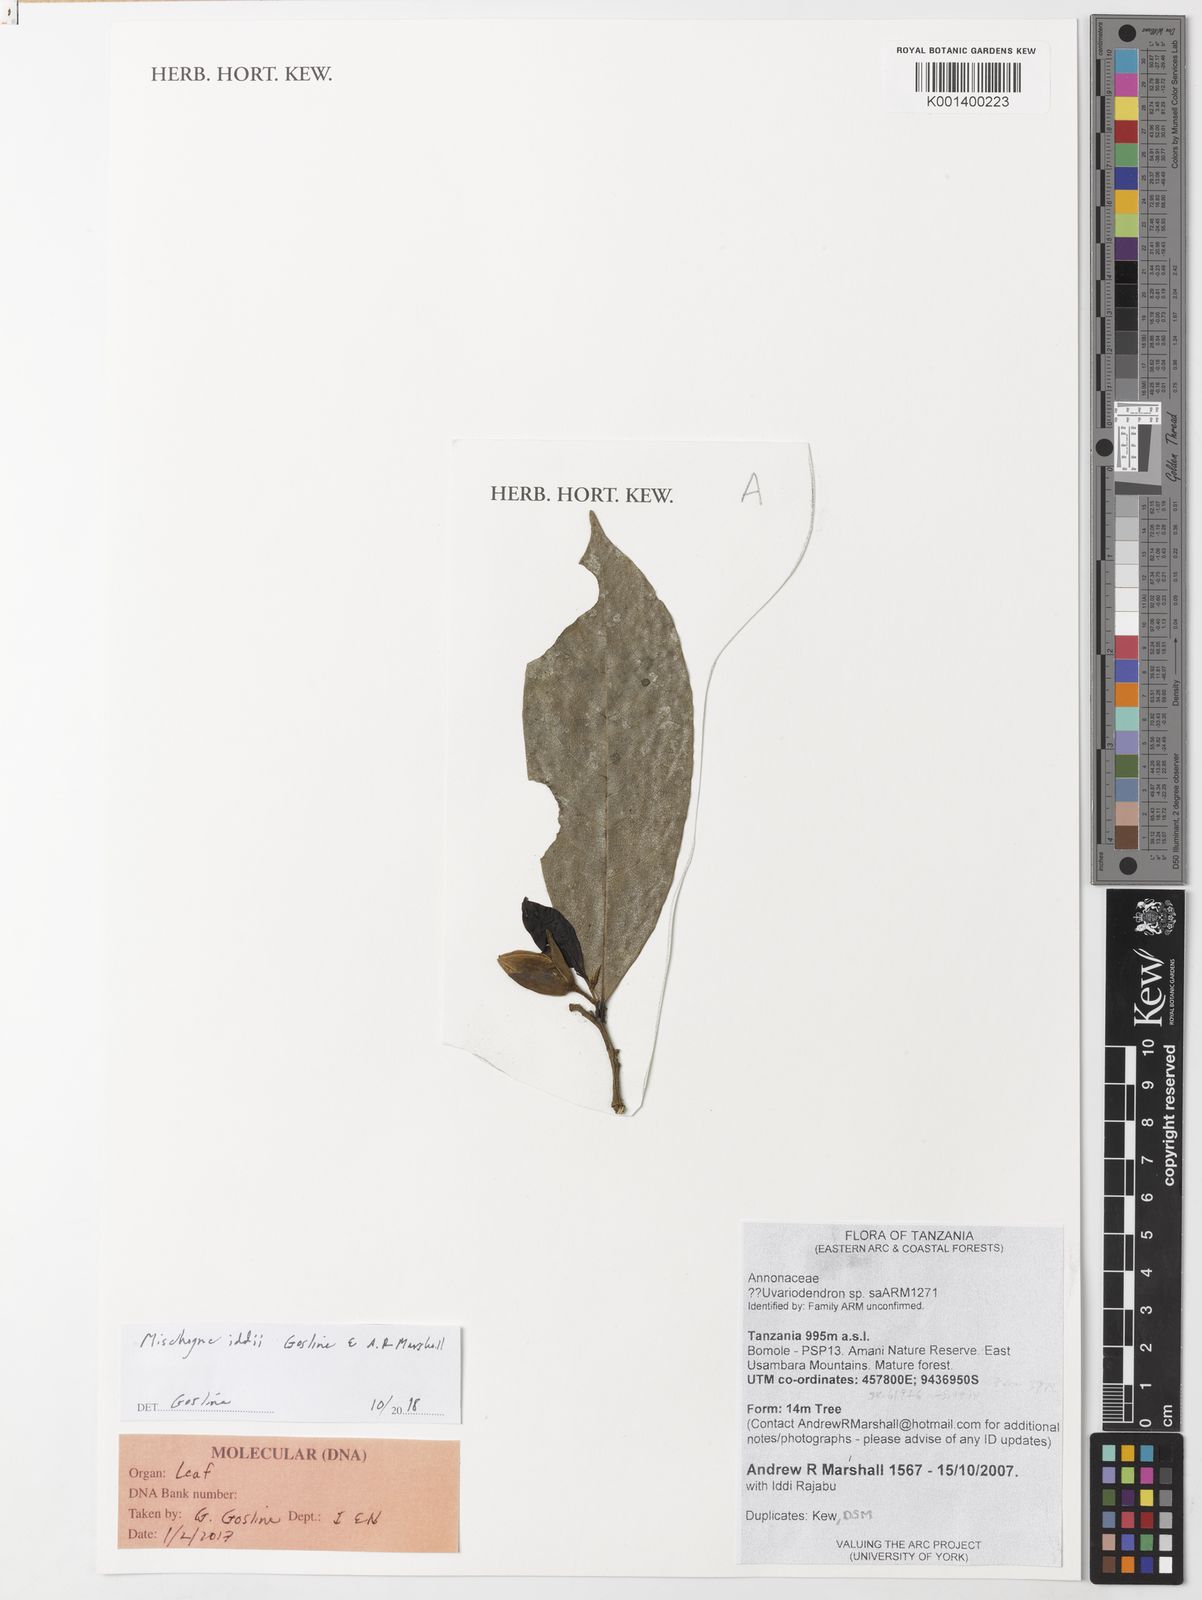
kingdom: Plantae
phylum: Tracheophyta
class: Magnoliopsida
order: Magnoliales
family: Annonaceae
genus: Mischogyne
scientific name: Mischogyne iddii
